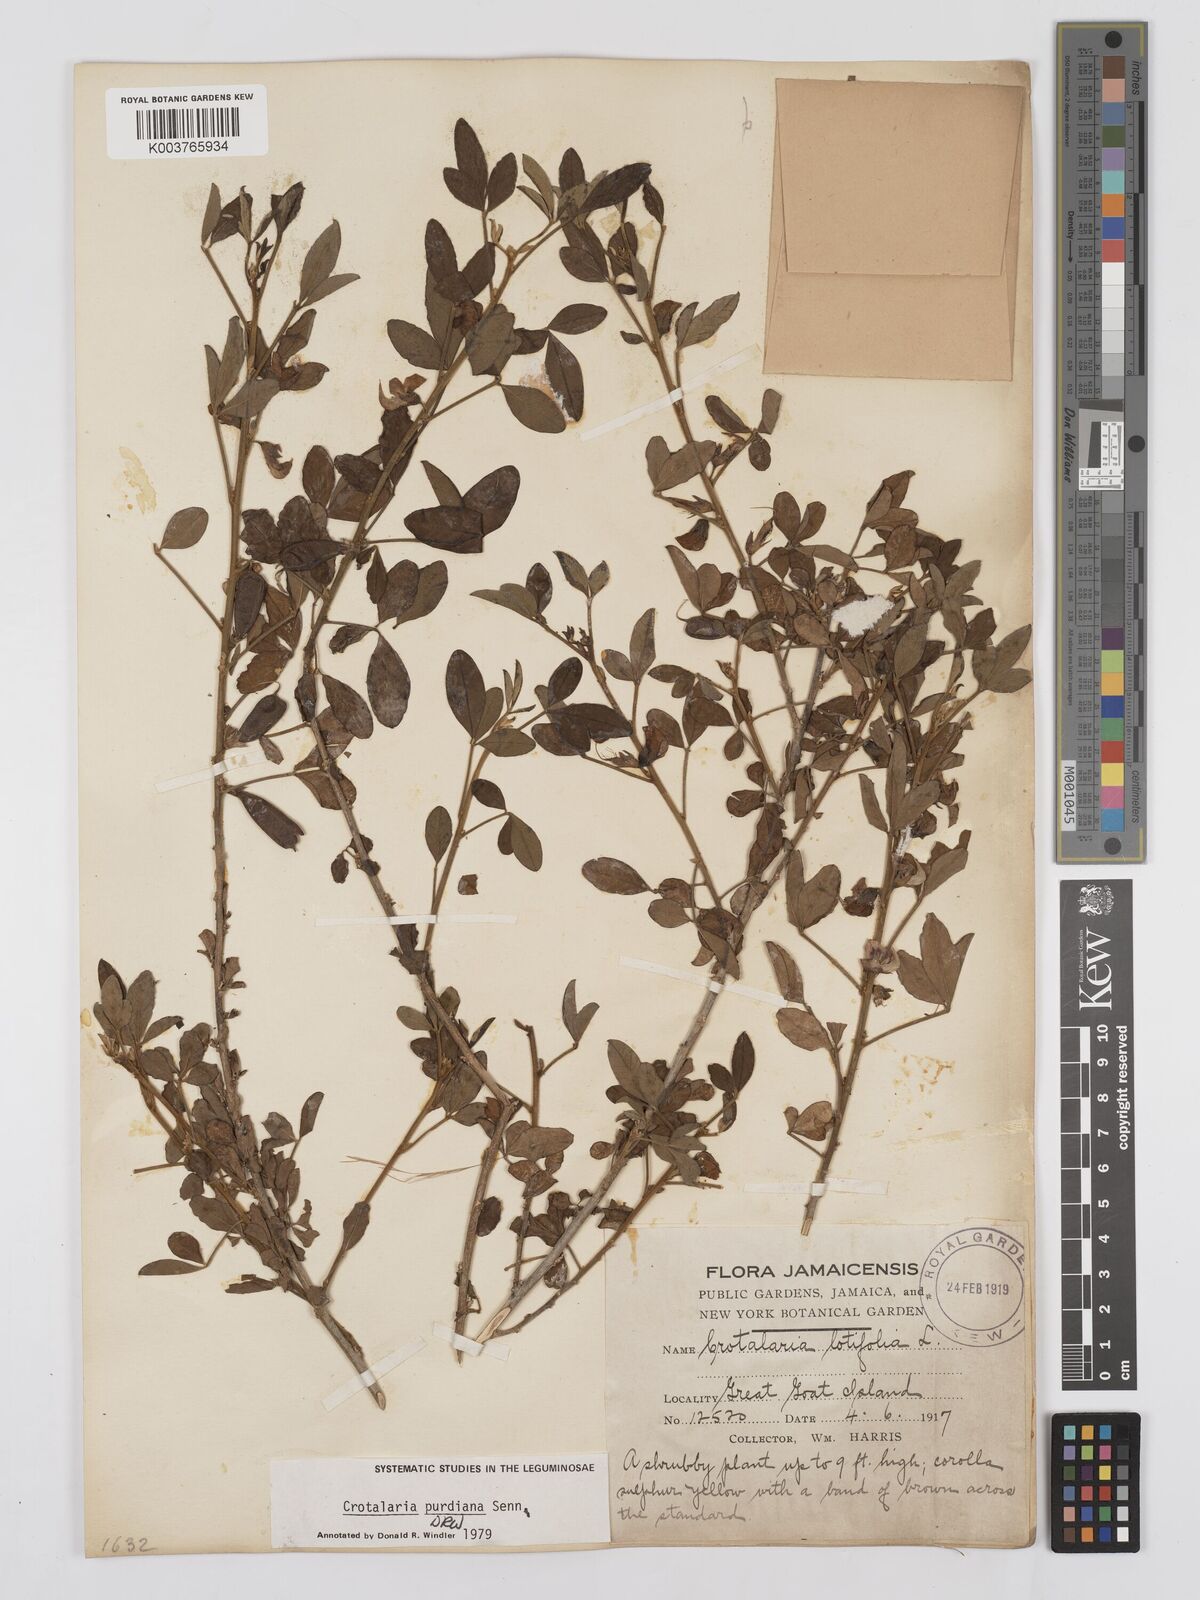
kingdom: Plantae
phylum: Tracheophyta
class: Magnoliopsida
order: Fabales
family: Fabaceae
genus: Crotalaria
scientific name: Crotalaria purdieana
